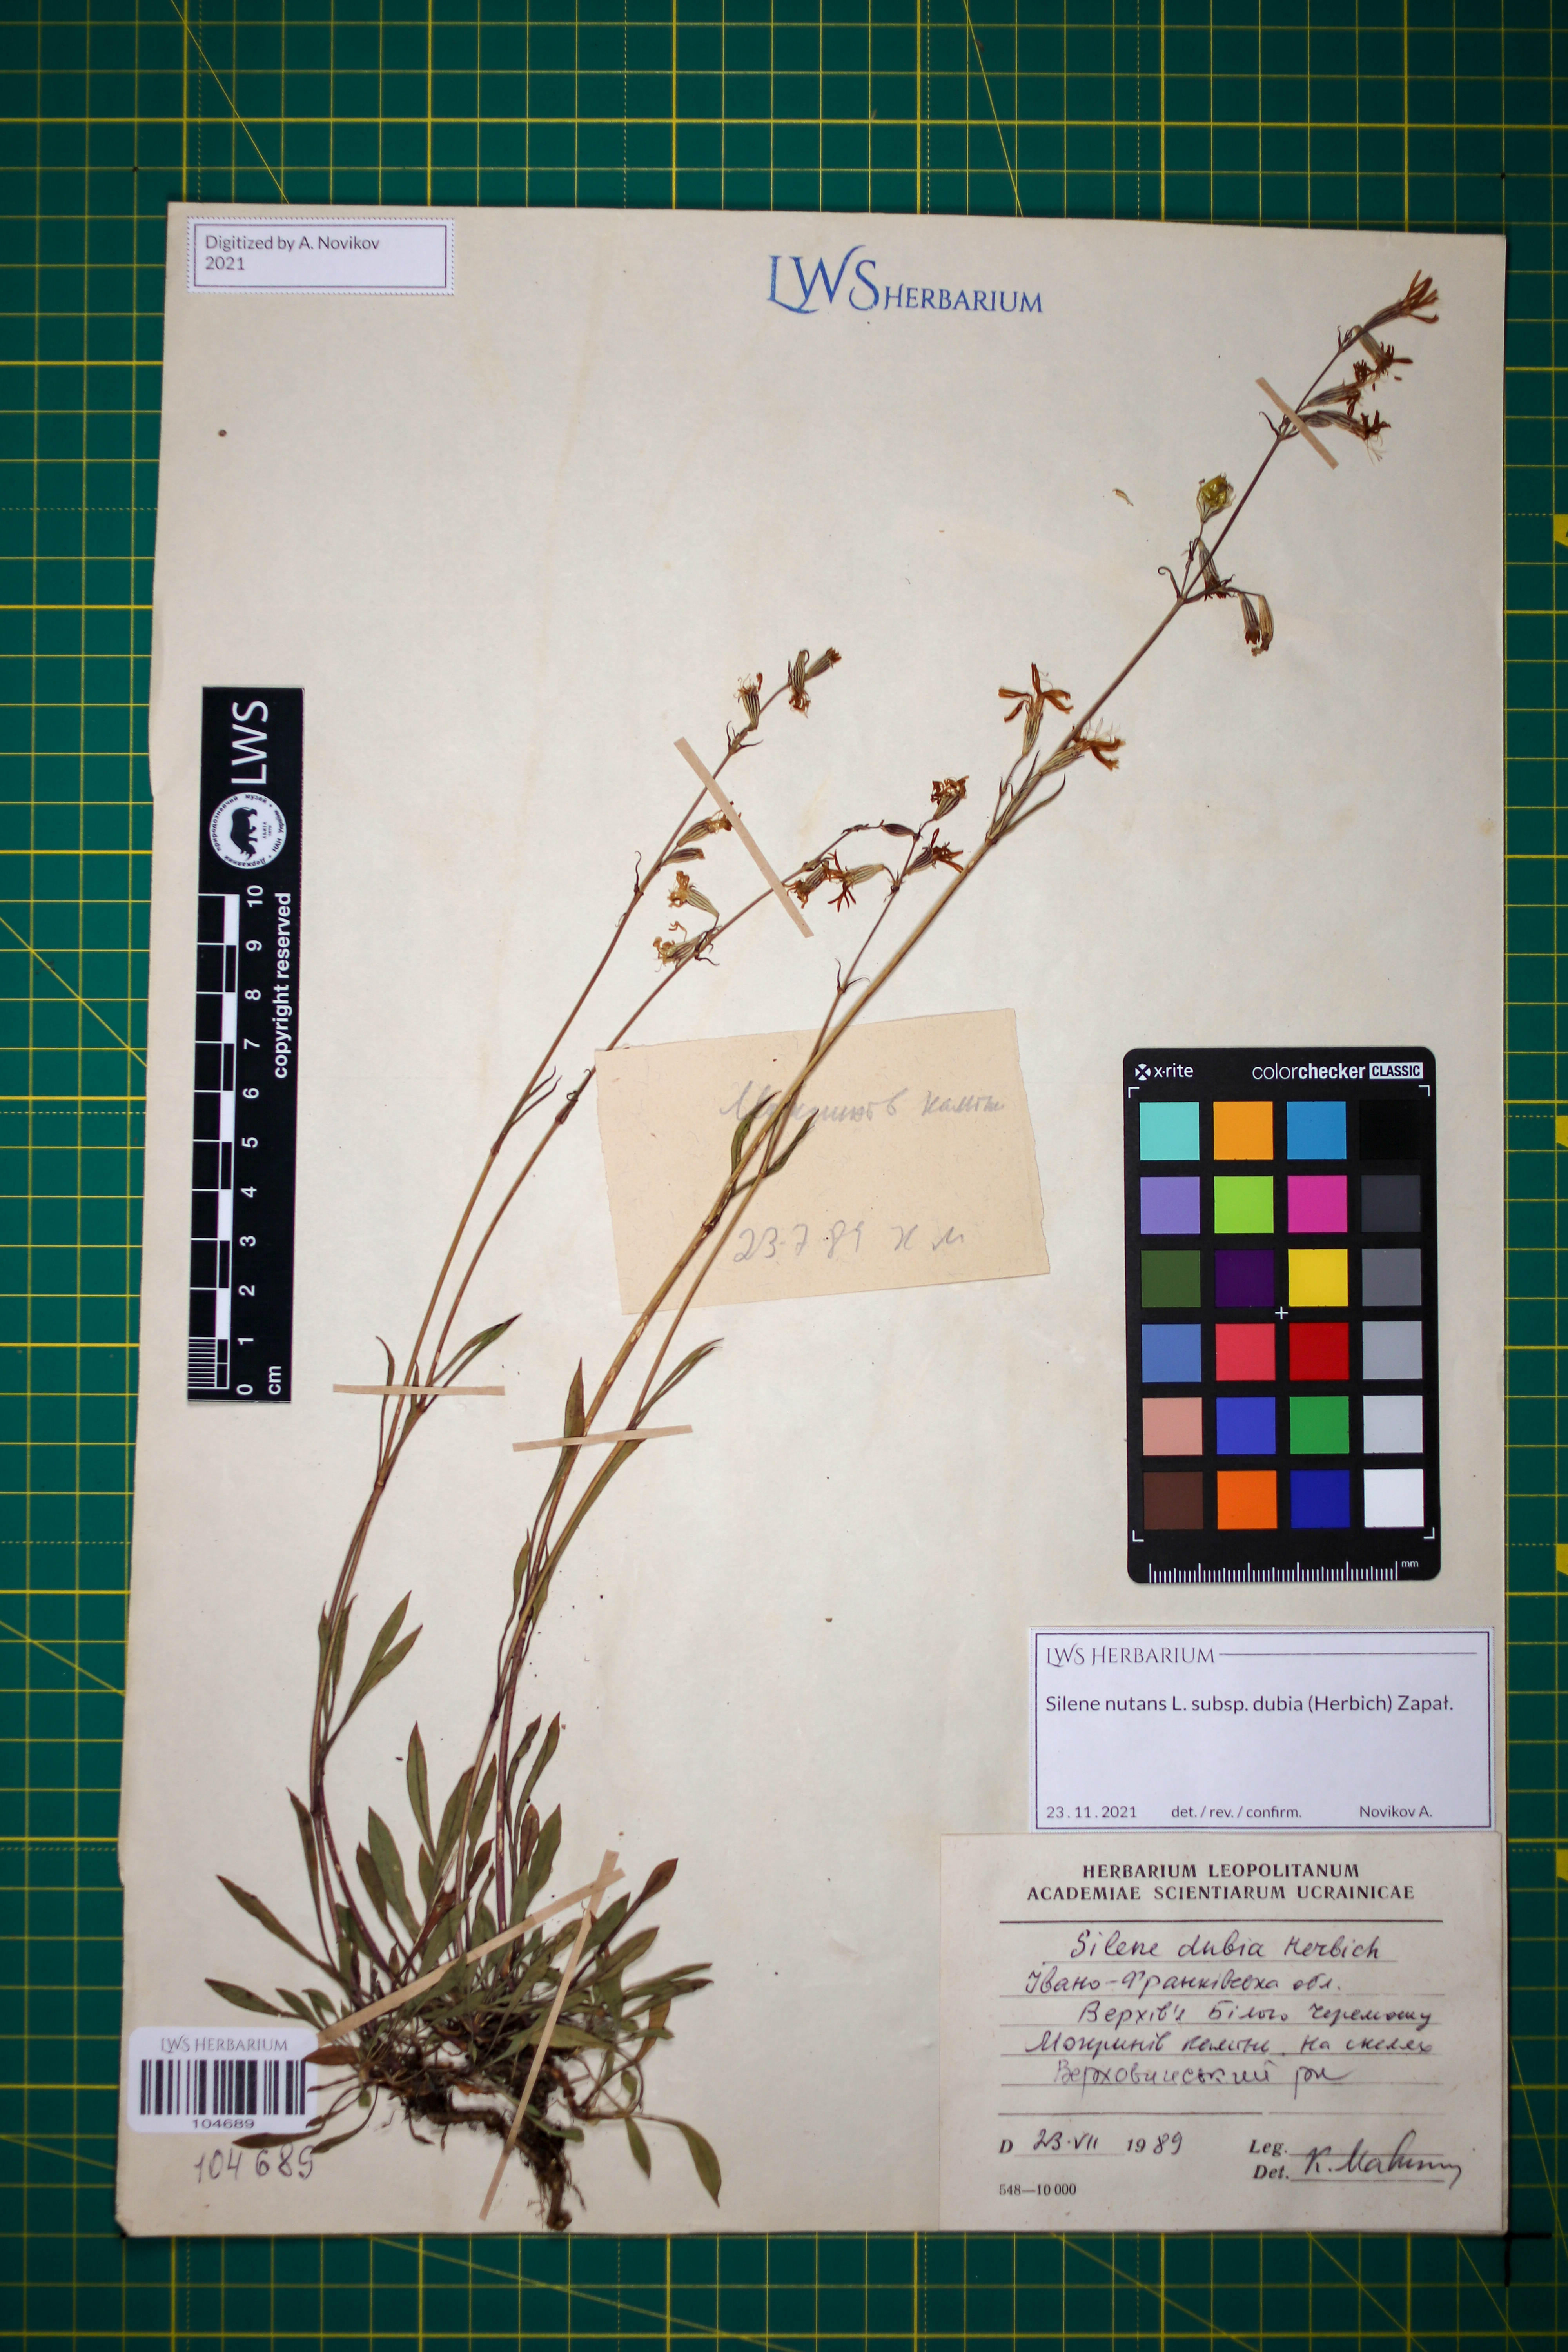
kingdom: Plantae
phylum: Tracheophyta
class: Magnoliopsida
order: Caryophyllales
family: Caryophyllaceae
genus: Silene
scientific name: Silene nutans
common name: Nottingham catchfly
